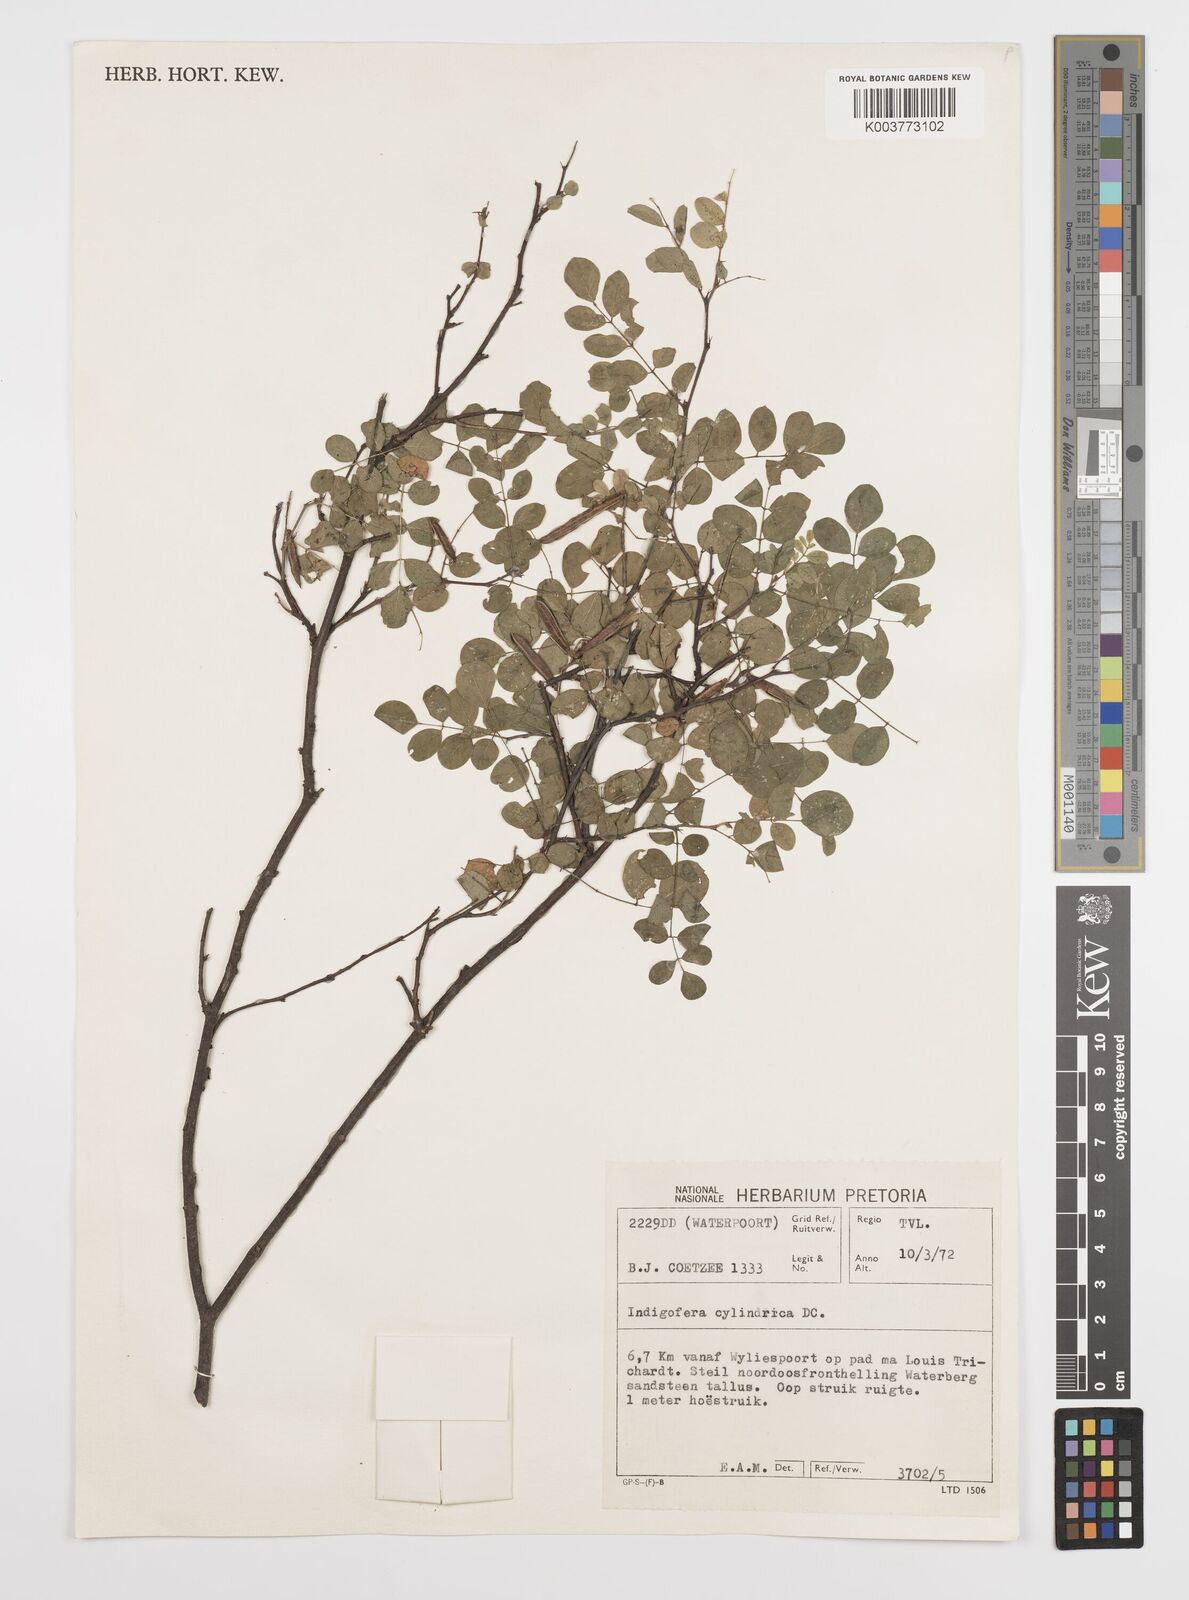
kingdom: Plantae
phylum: Tracheophyta
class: Magnoliopsida
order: Fabales
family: Fabaceae
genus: Indigofera
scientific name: Indigofera subcorymbosa
